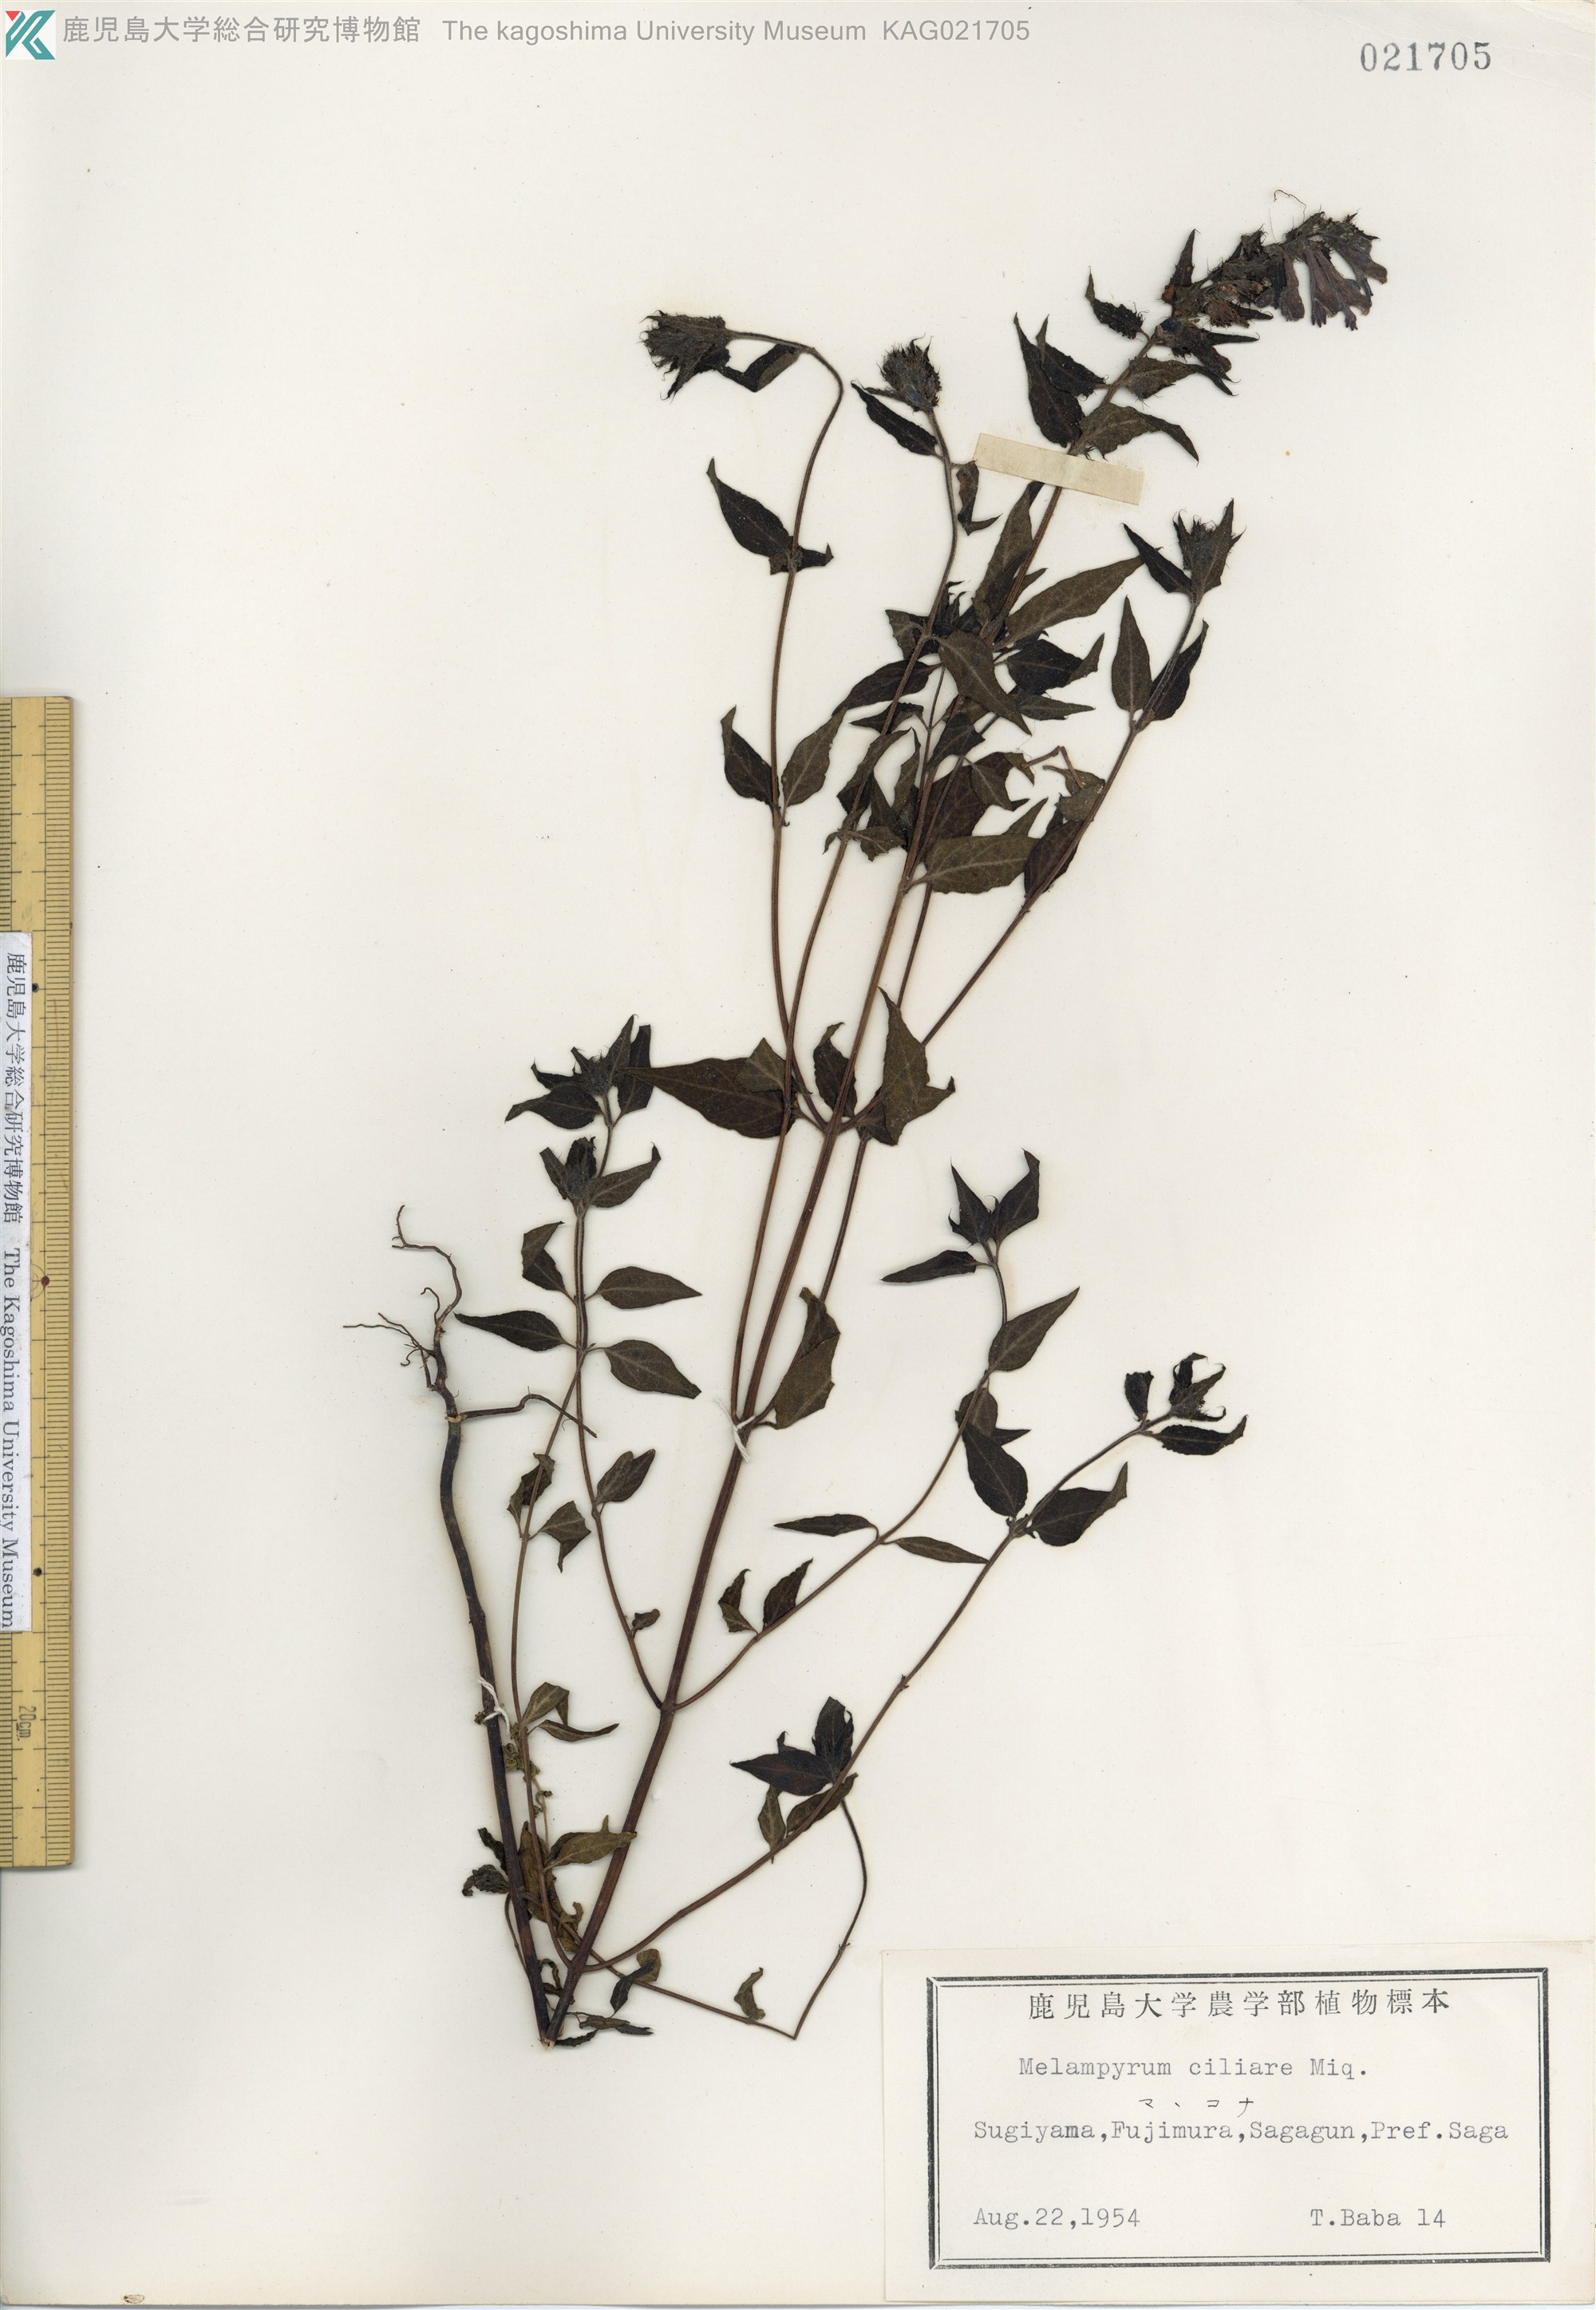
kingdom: Plantae
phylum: Tracheophyta
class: Magnoliopsida
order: Lamiales
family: Orobanchaceae
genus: Melampyrum
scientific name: Melampyrum roseum
